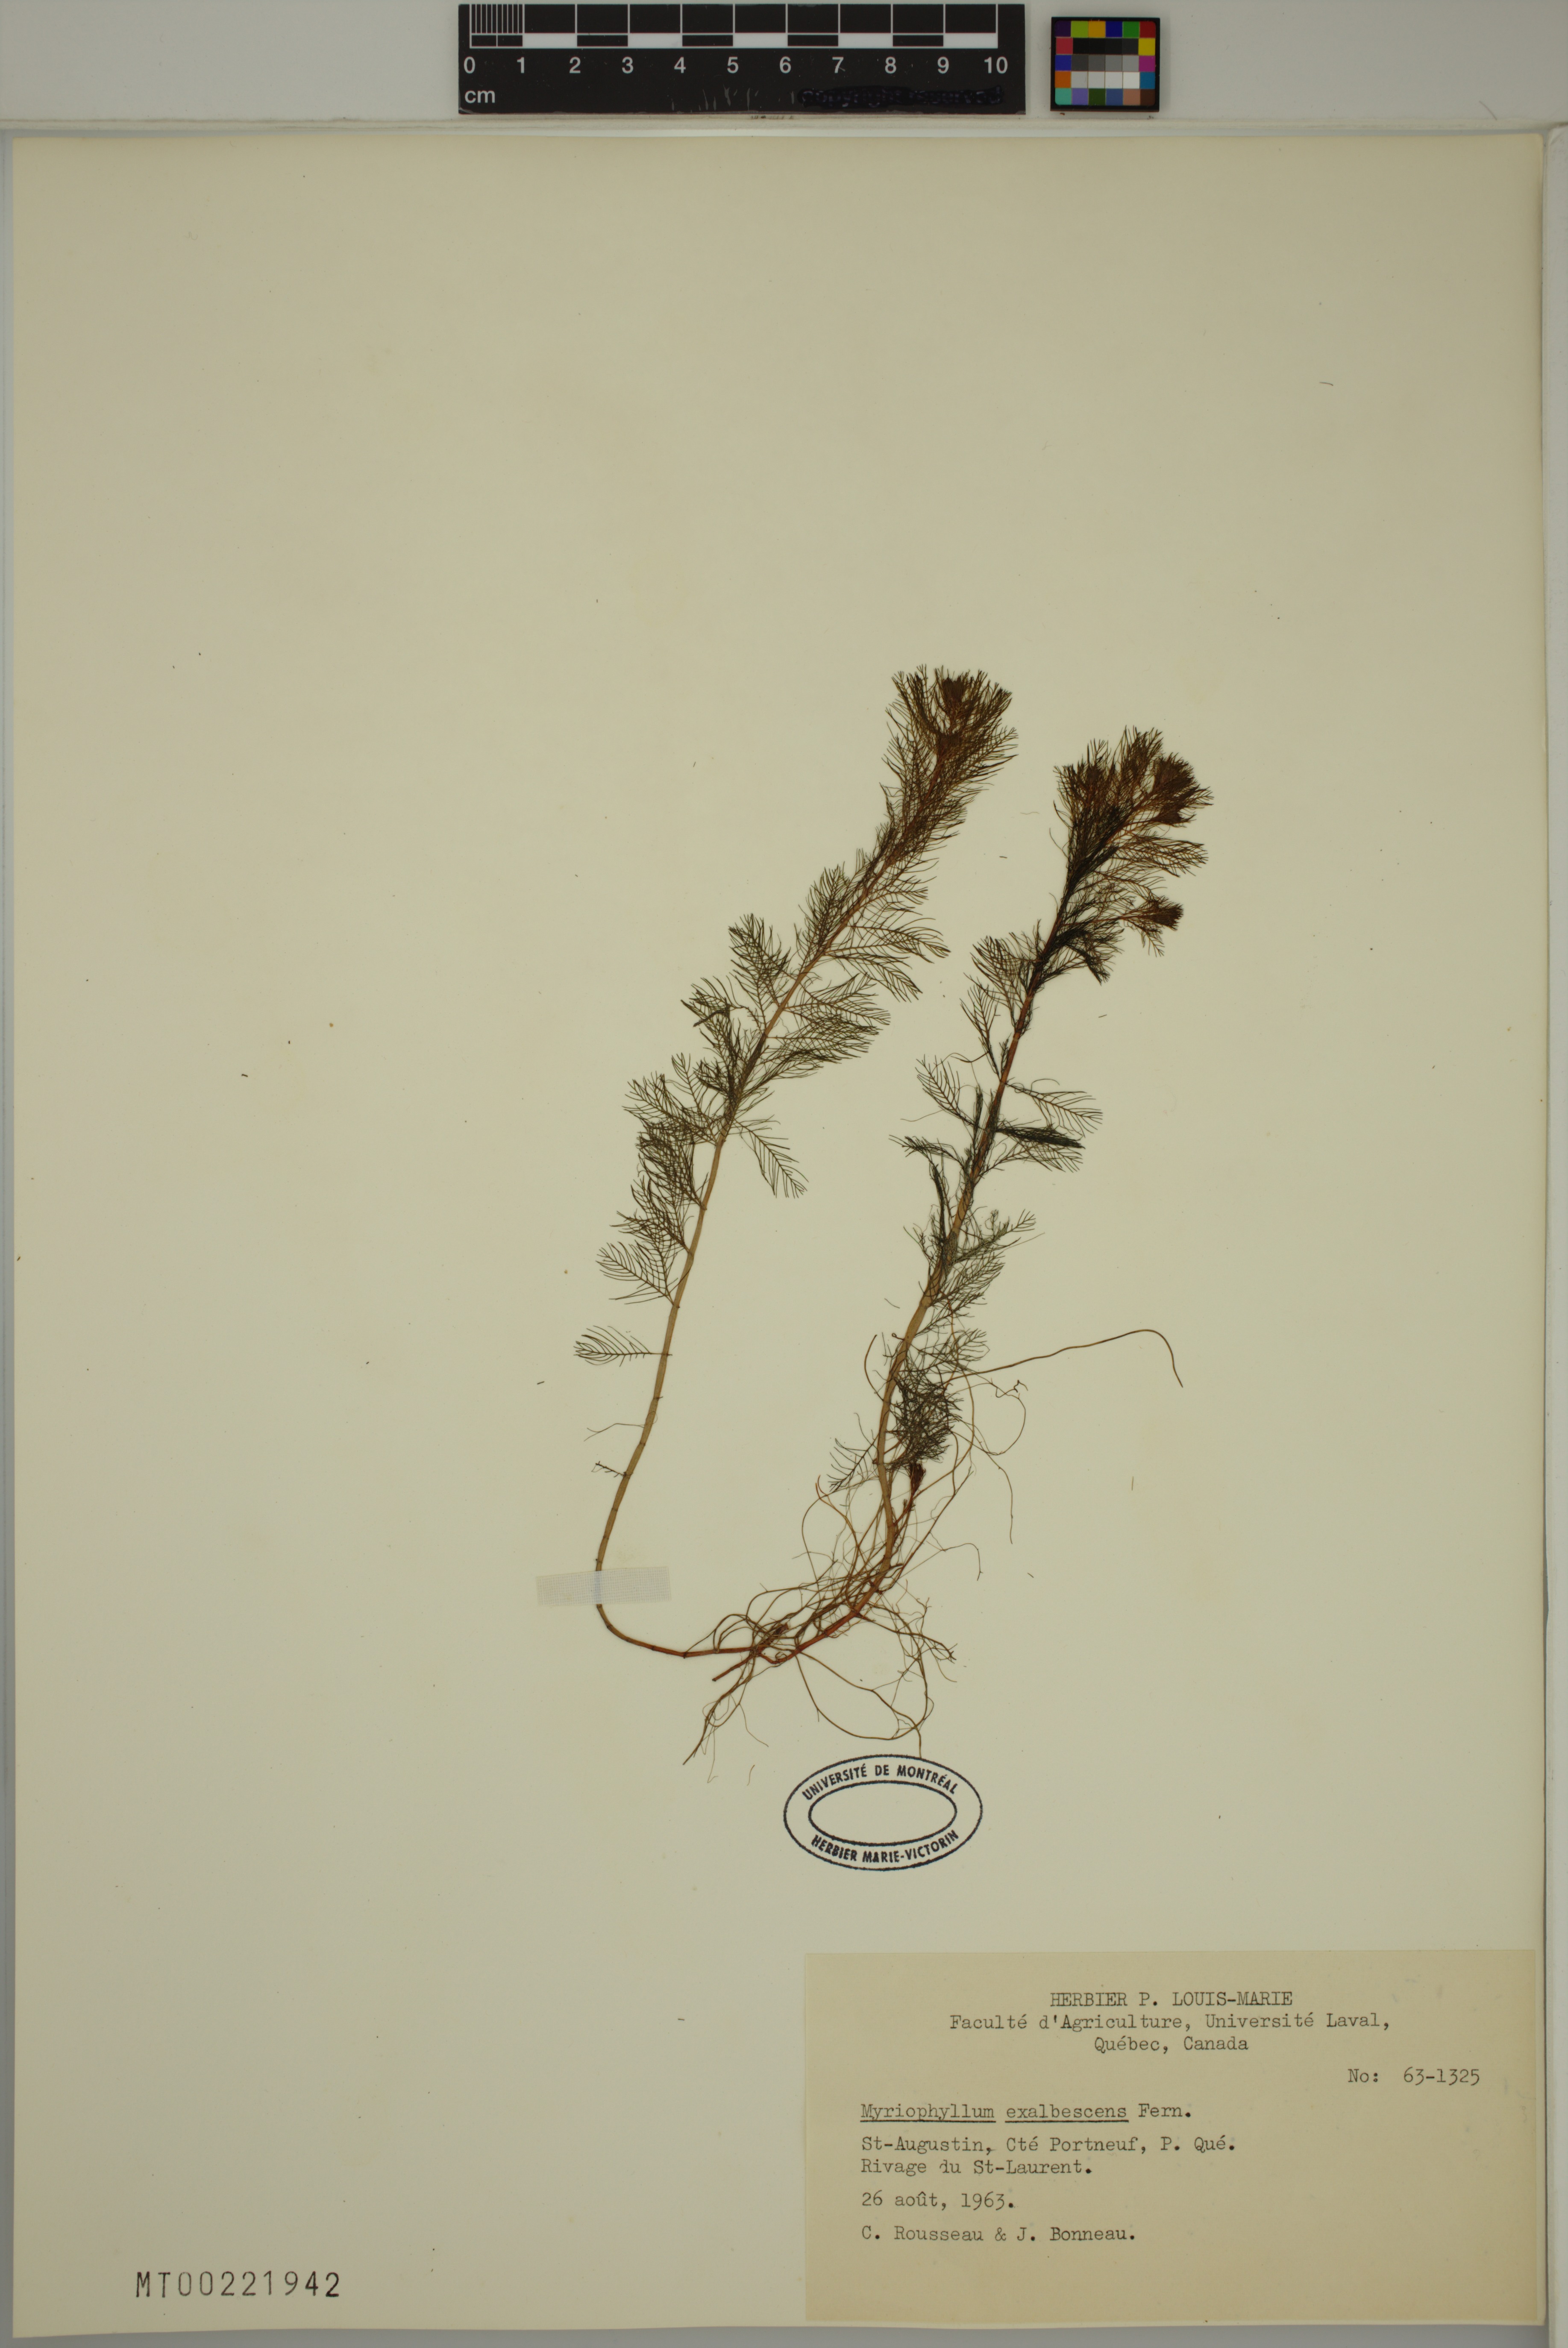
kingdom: Plantae
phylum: Tracheophyta
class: Magnoliopsida
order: Saxifragales
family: Haloragaceae
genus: Myriophyllum
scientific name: Myriophyllum sibiricum
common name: Siberian water-milfoil
